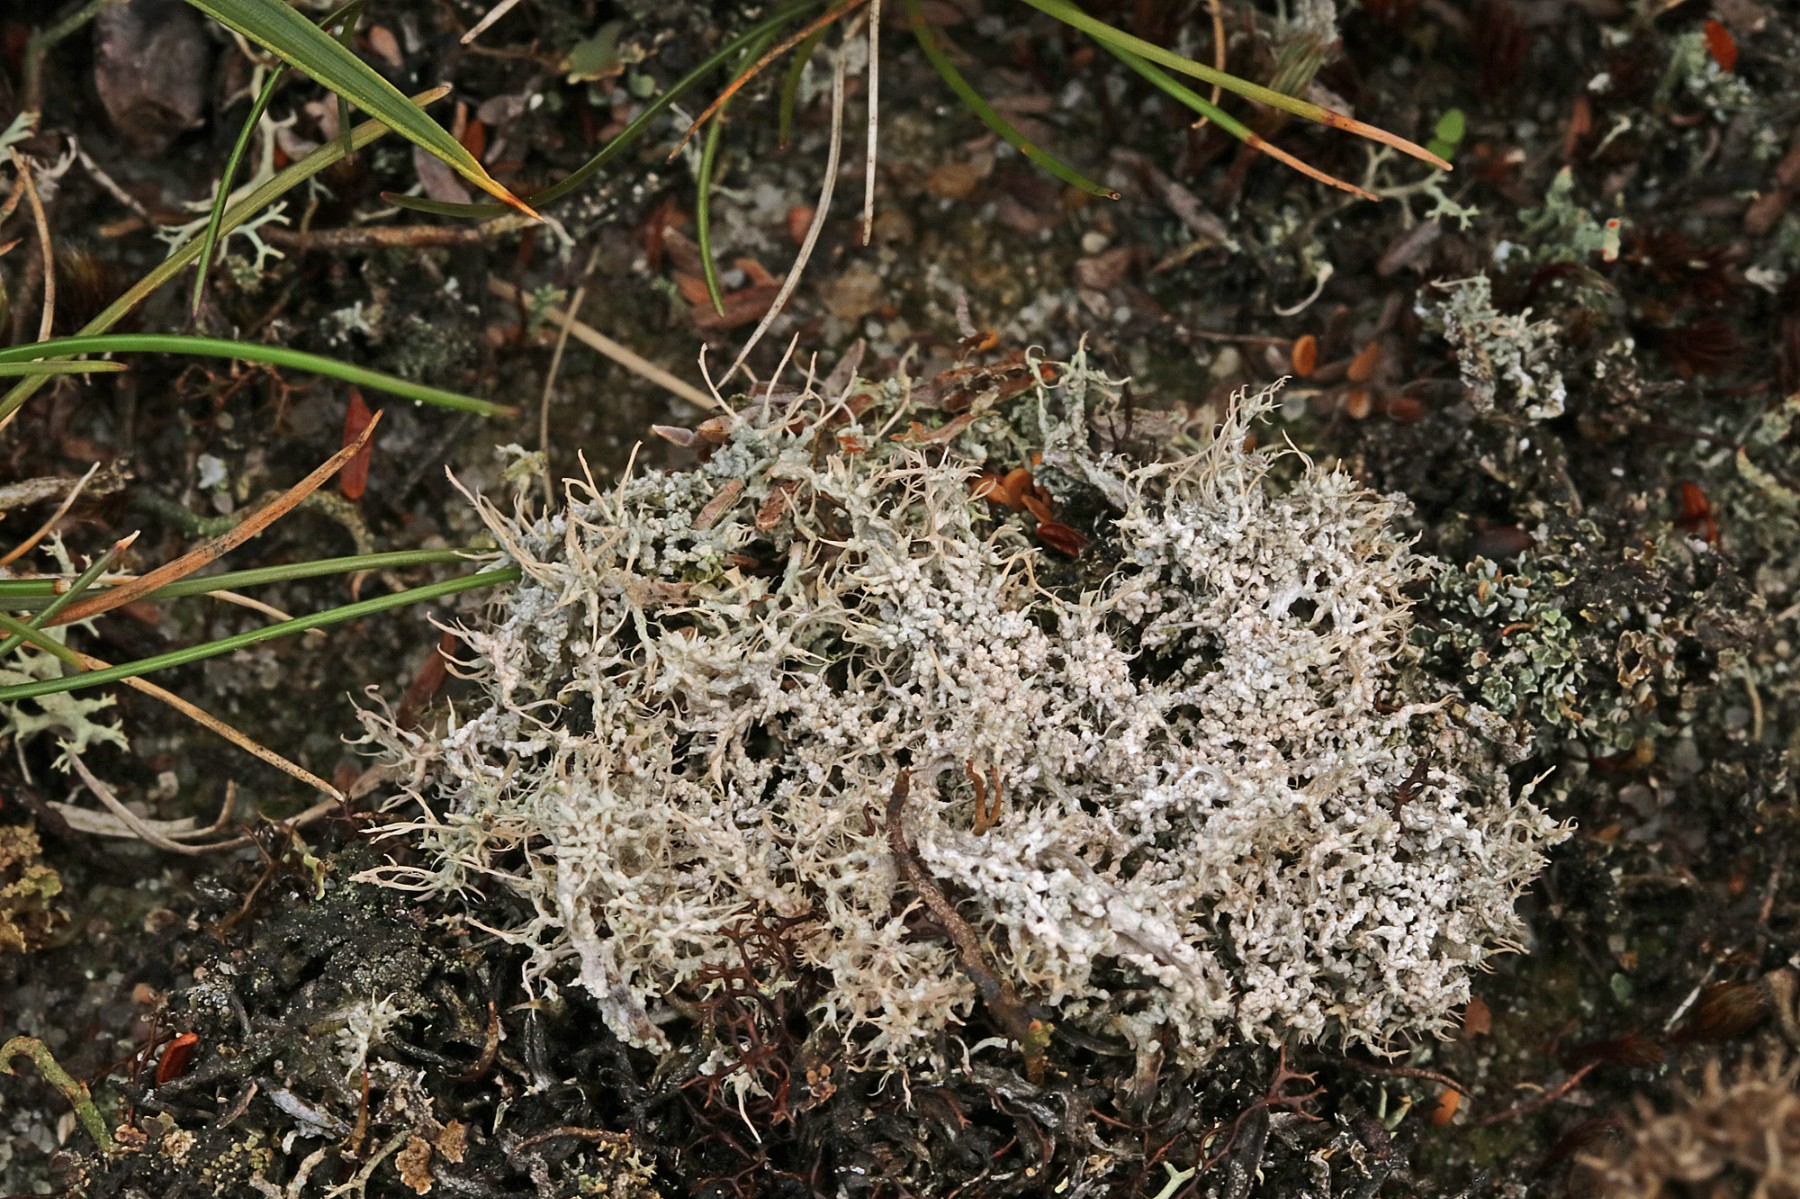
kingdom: Fungi
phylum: Ascomycota
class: Lecanoromycetes
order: Pertusariales
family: Ochrolechiaceae
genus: Ochrolechia
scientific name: Ochrolechia frigida
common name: fjeld-blegskivelav
